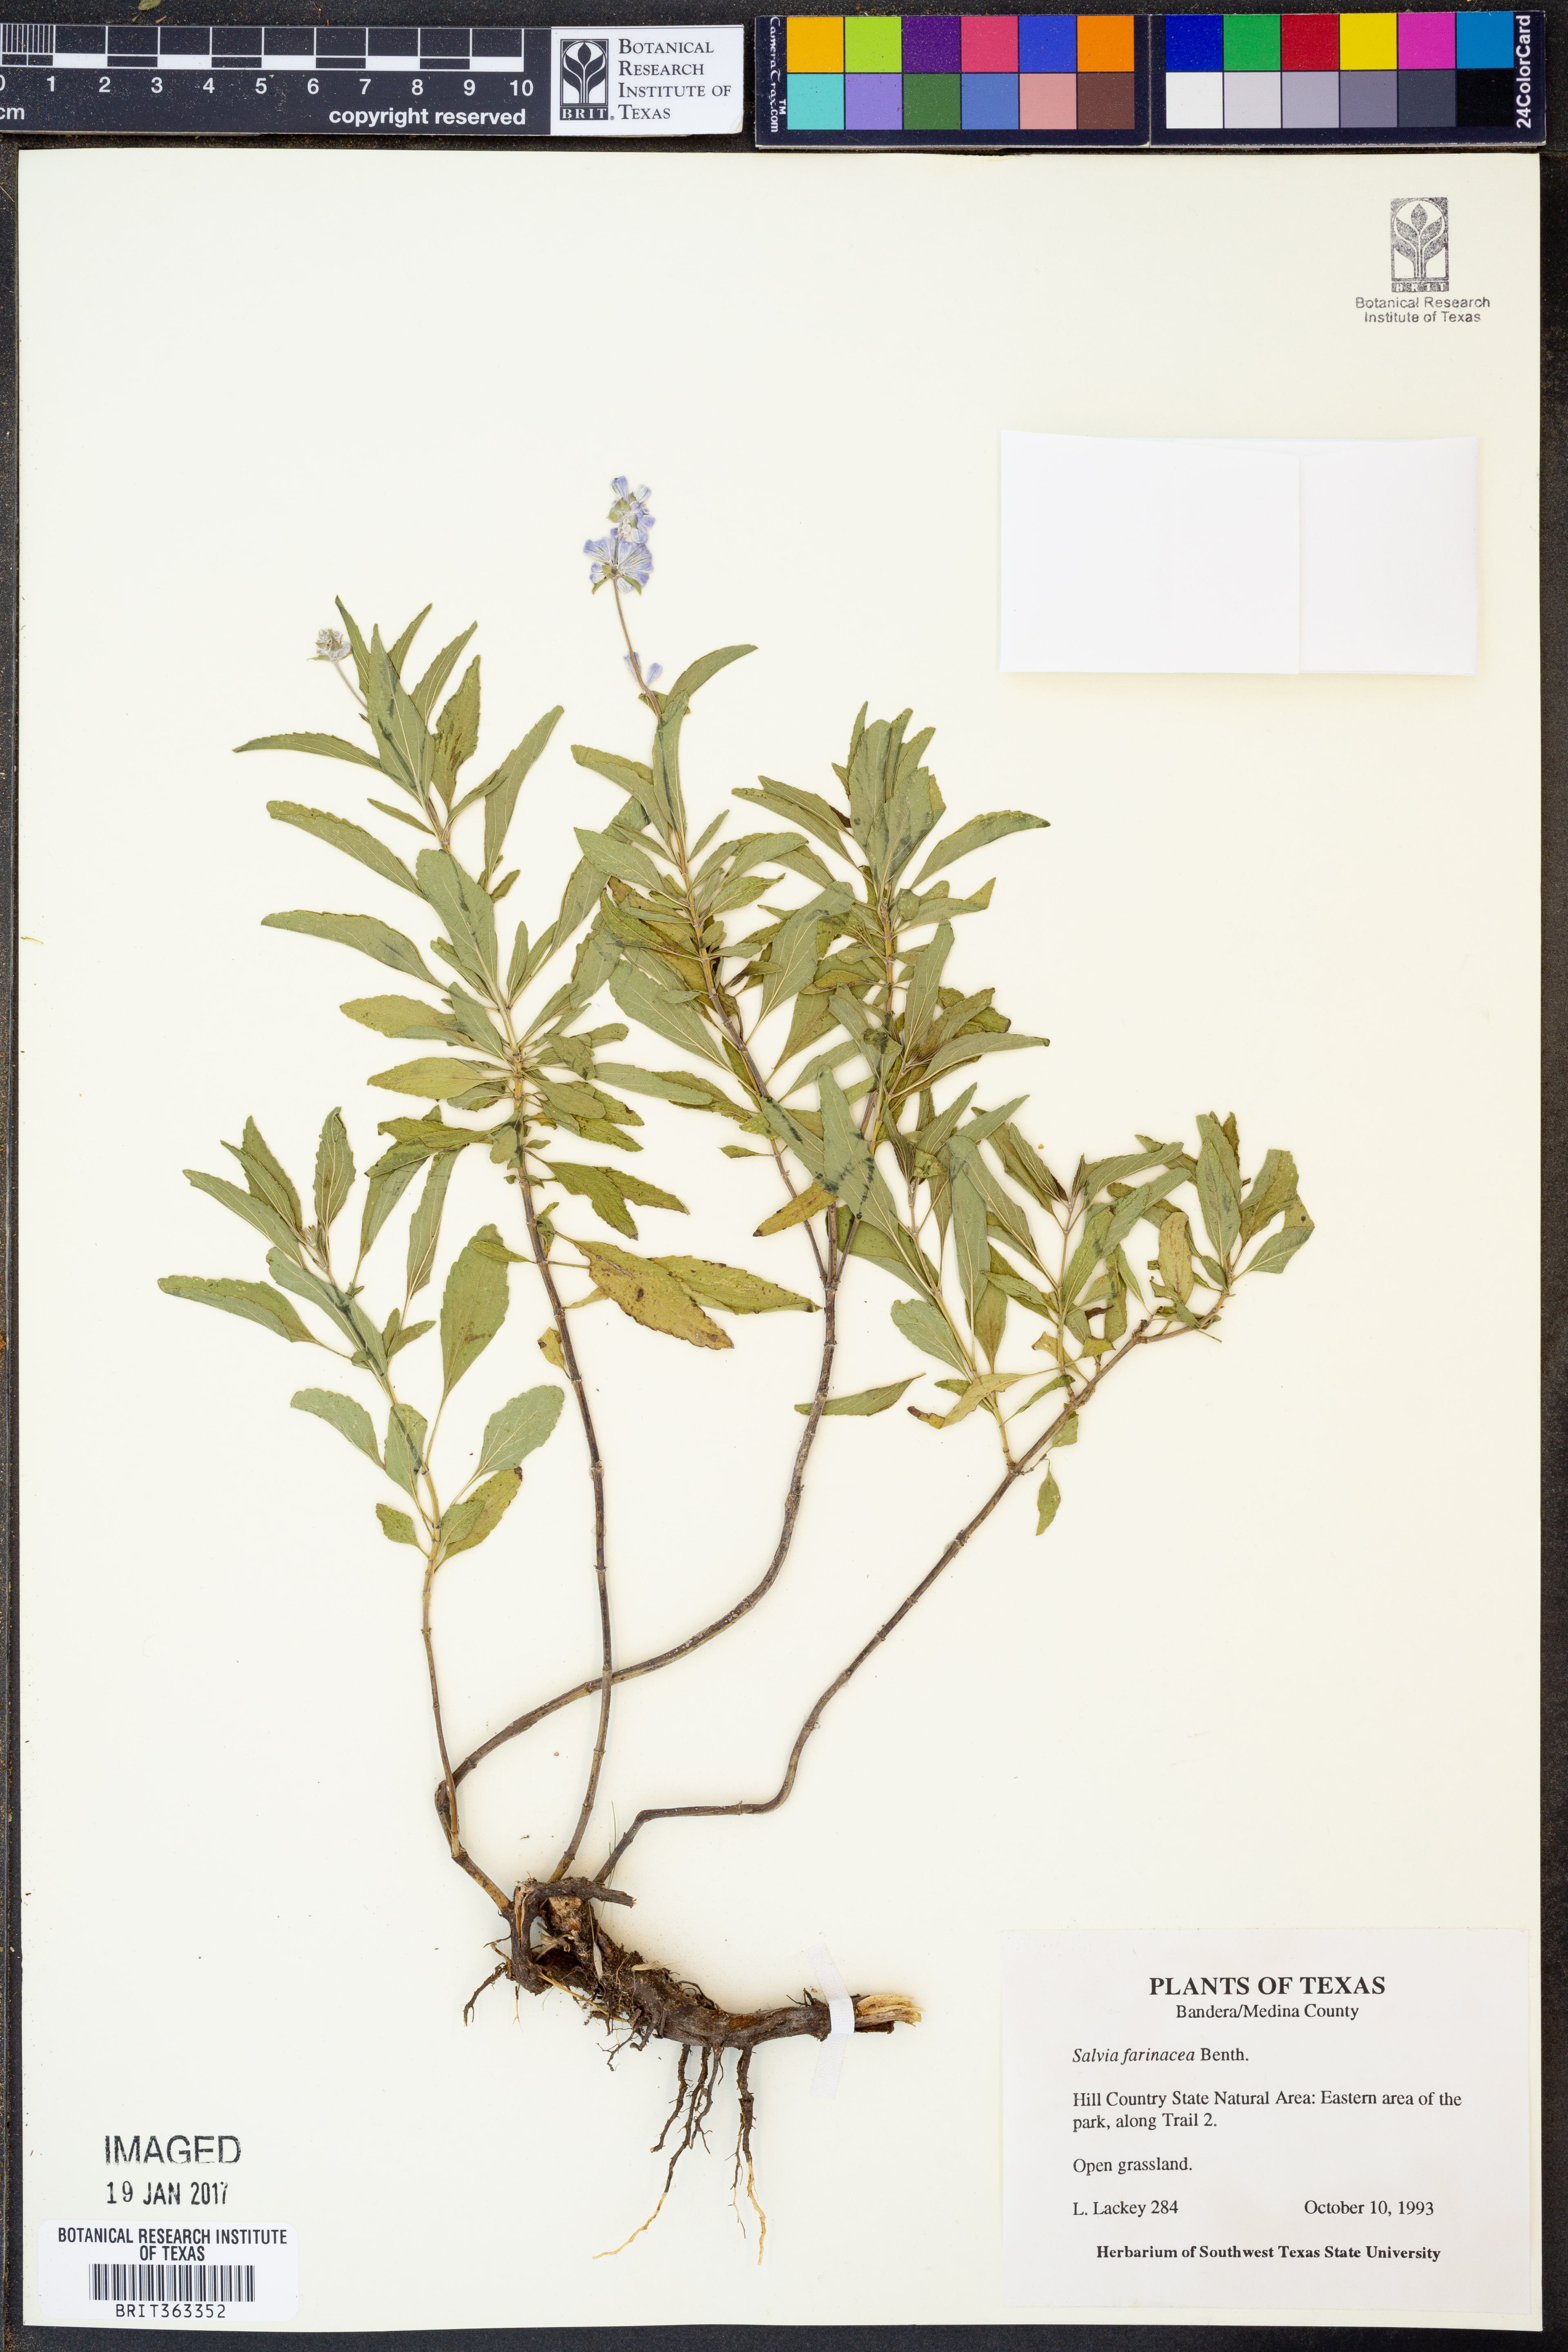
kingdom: Plantae
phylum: Tracheophyta
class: Magnoliopsida
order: Lamiales
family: Lamiaceae
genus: Salvia
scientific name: Salvia farinacea
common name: Mealy sage
